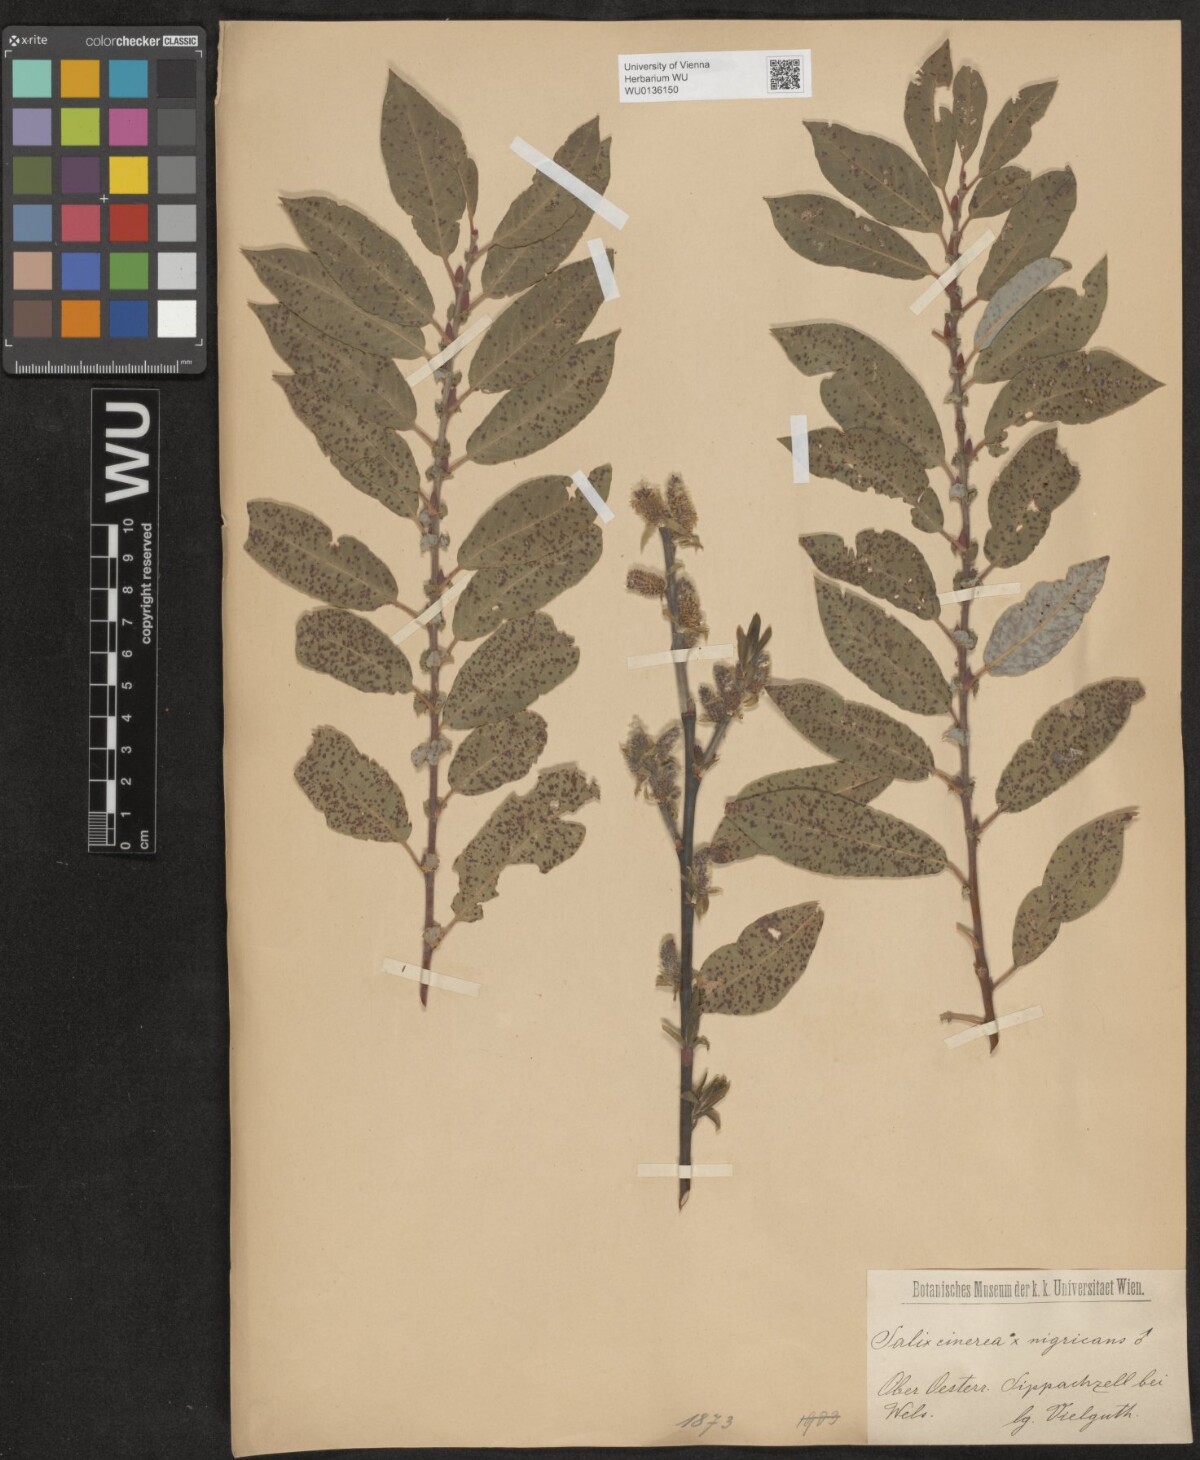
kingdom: Plantae
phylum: Tracheophyta
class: Magnoliopsida
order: Malpighiales
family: Salicaceae
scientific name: Salicaceae
